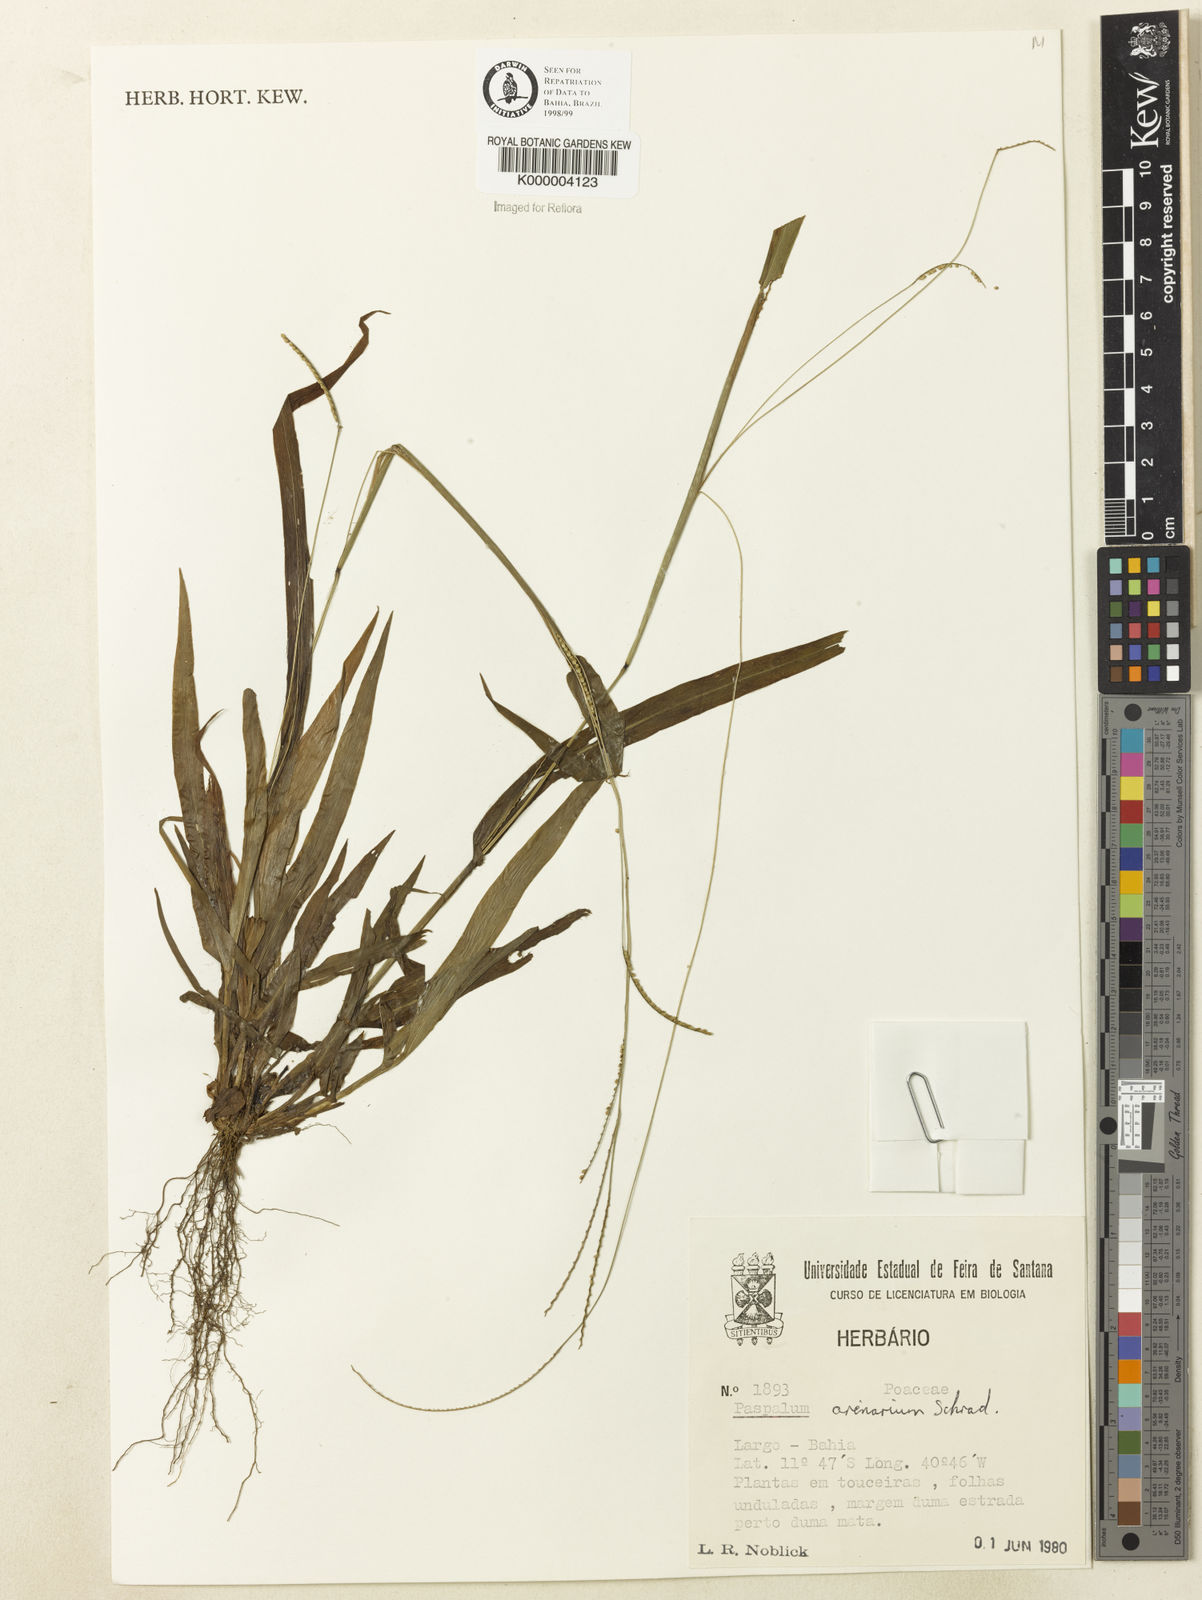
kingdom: Plantae
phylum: Tracheophyta
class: Liliopsida
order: Poales
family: Poaceae
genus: Paspalum
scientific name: Paspalum arenarium
